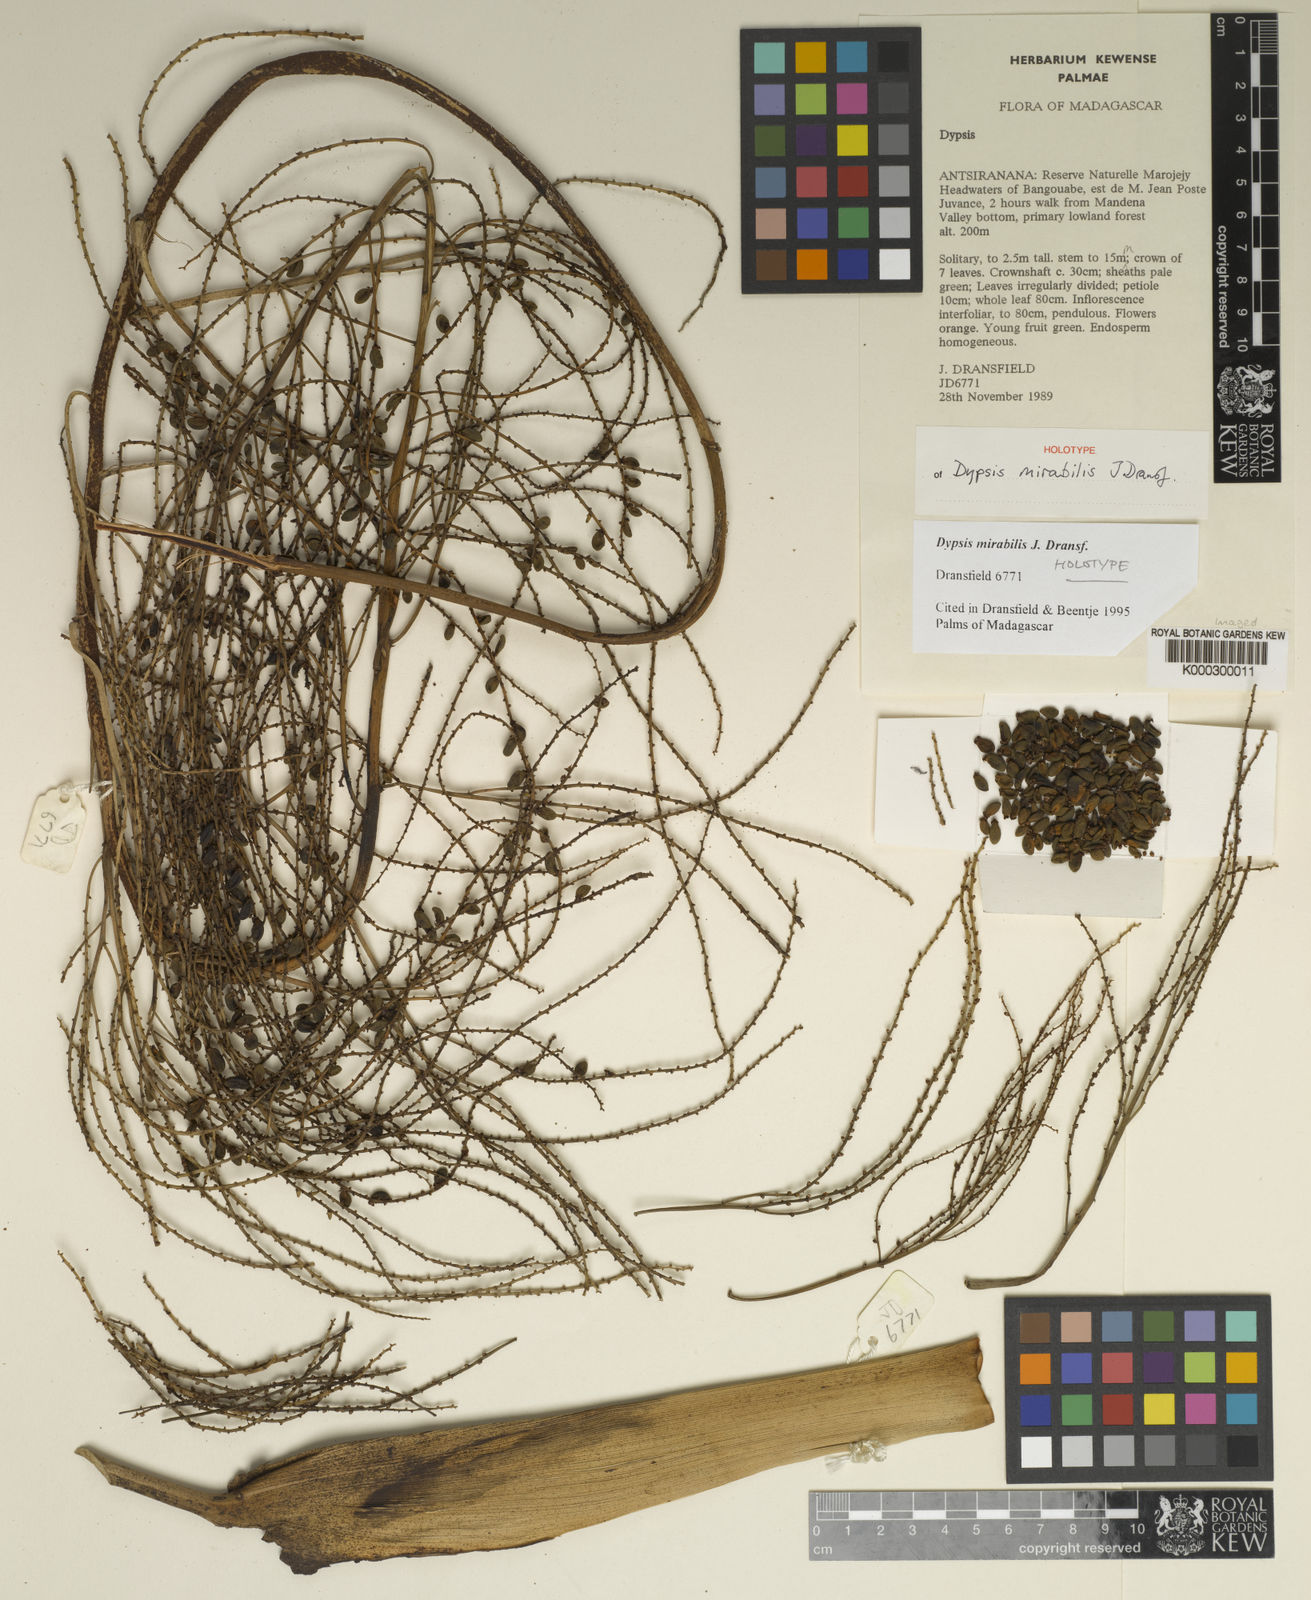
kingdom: Plantae
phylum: Tracheophyta
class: Liliopsida
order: Arecales
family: Arecaceae
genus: Dypsis
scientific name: Dypsis mirabilis
